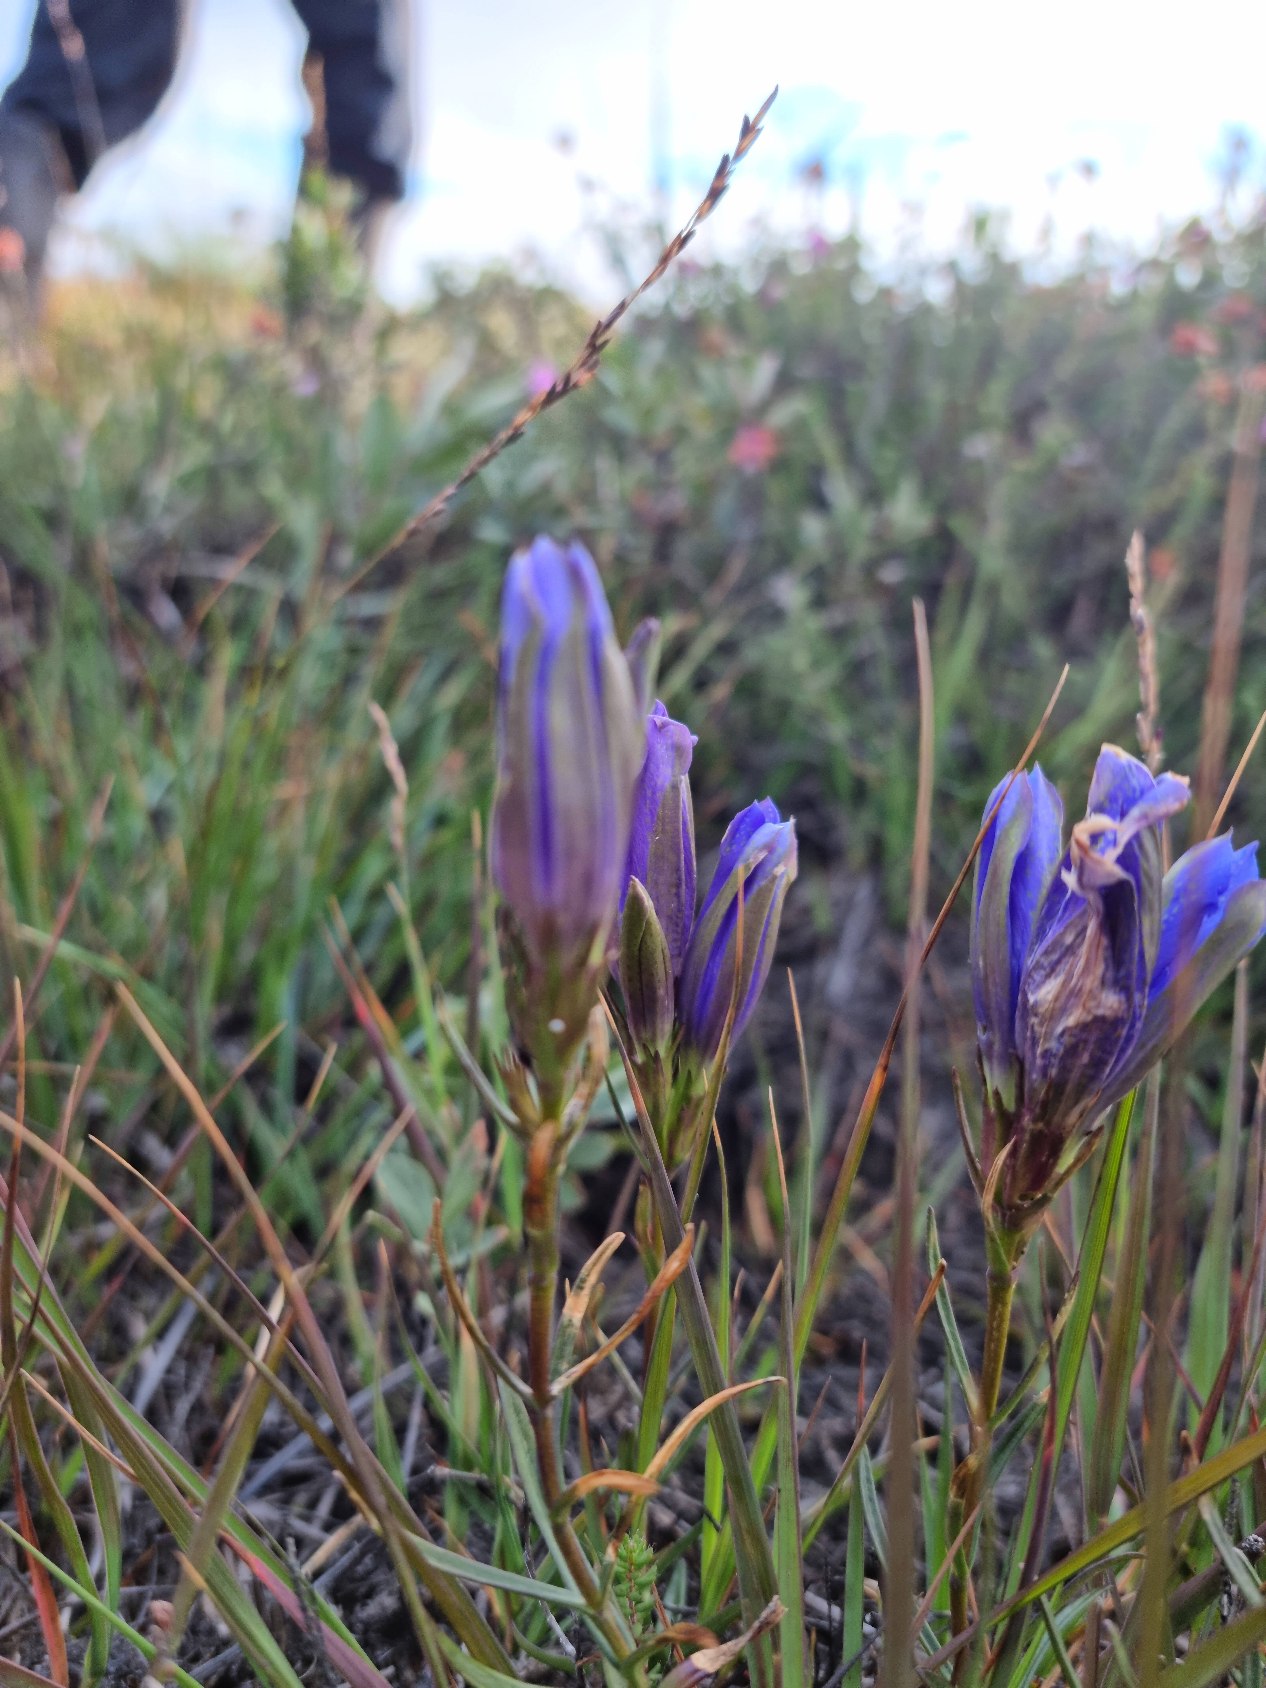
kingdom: Plantae
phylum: Tracheophyta
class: Magnoliopsida
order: Gentianales
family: Gentianaceae
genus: Gentiana
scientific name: Gentiana pneumonanthe
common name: Klokke-ensian
